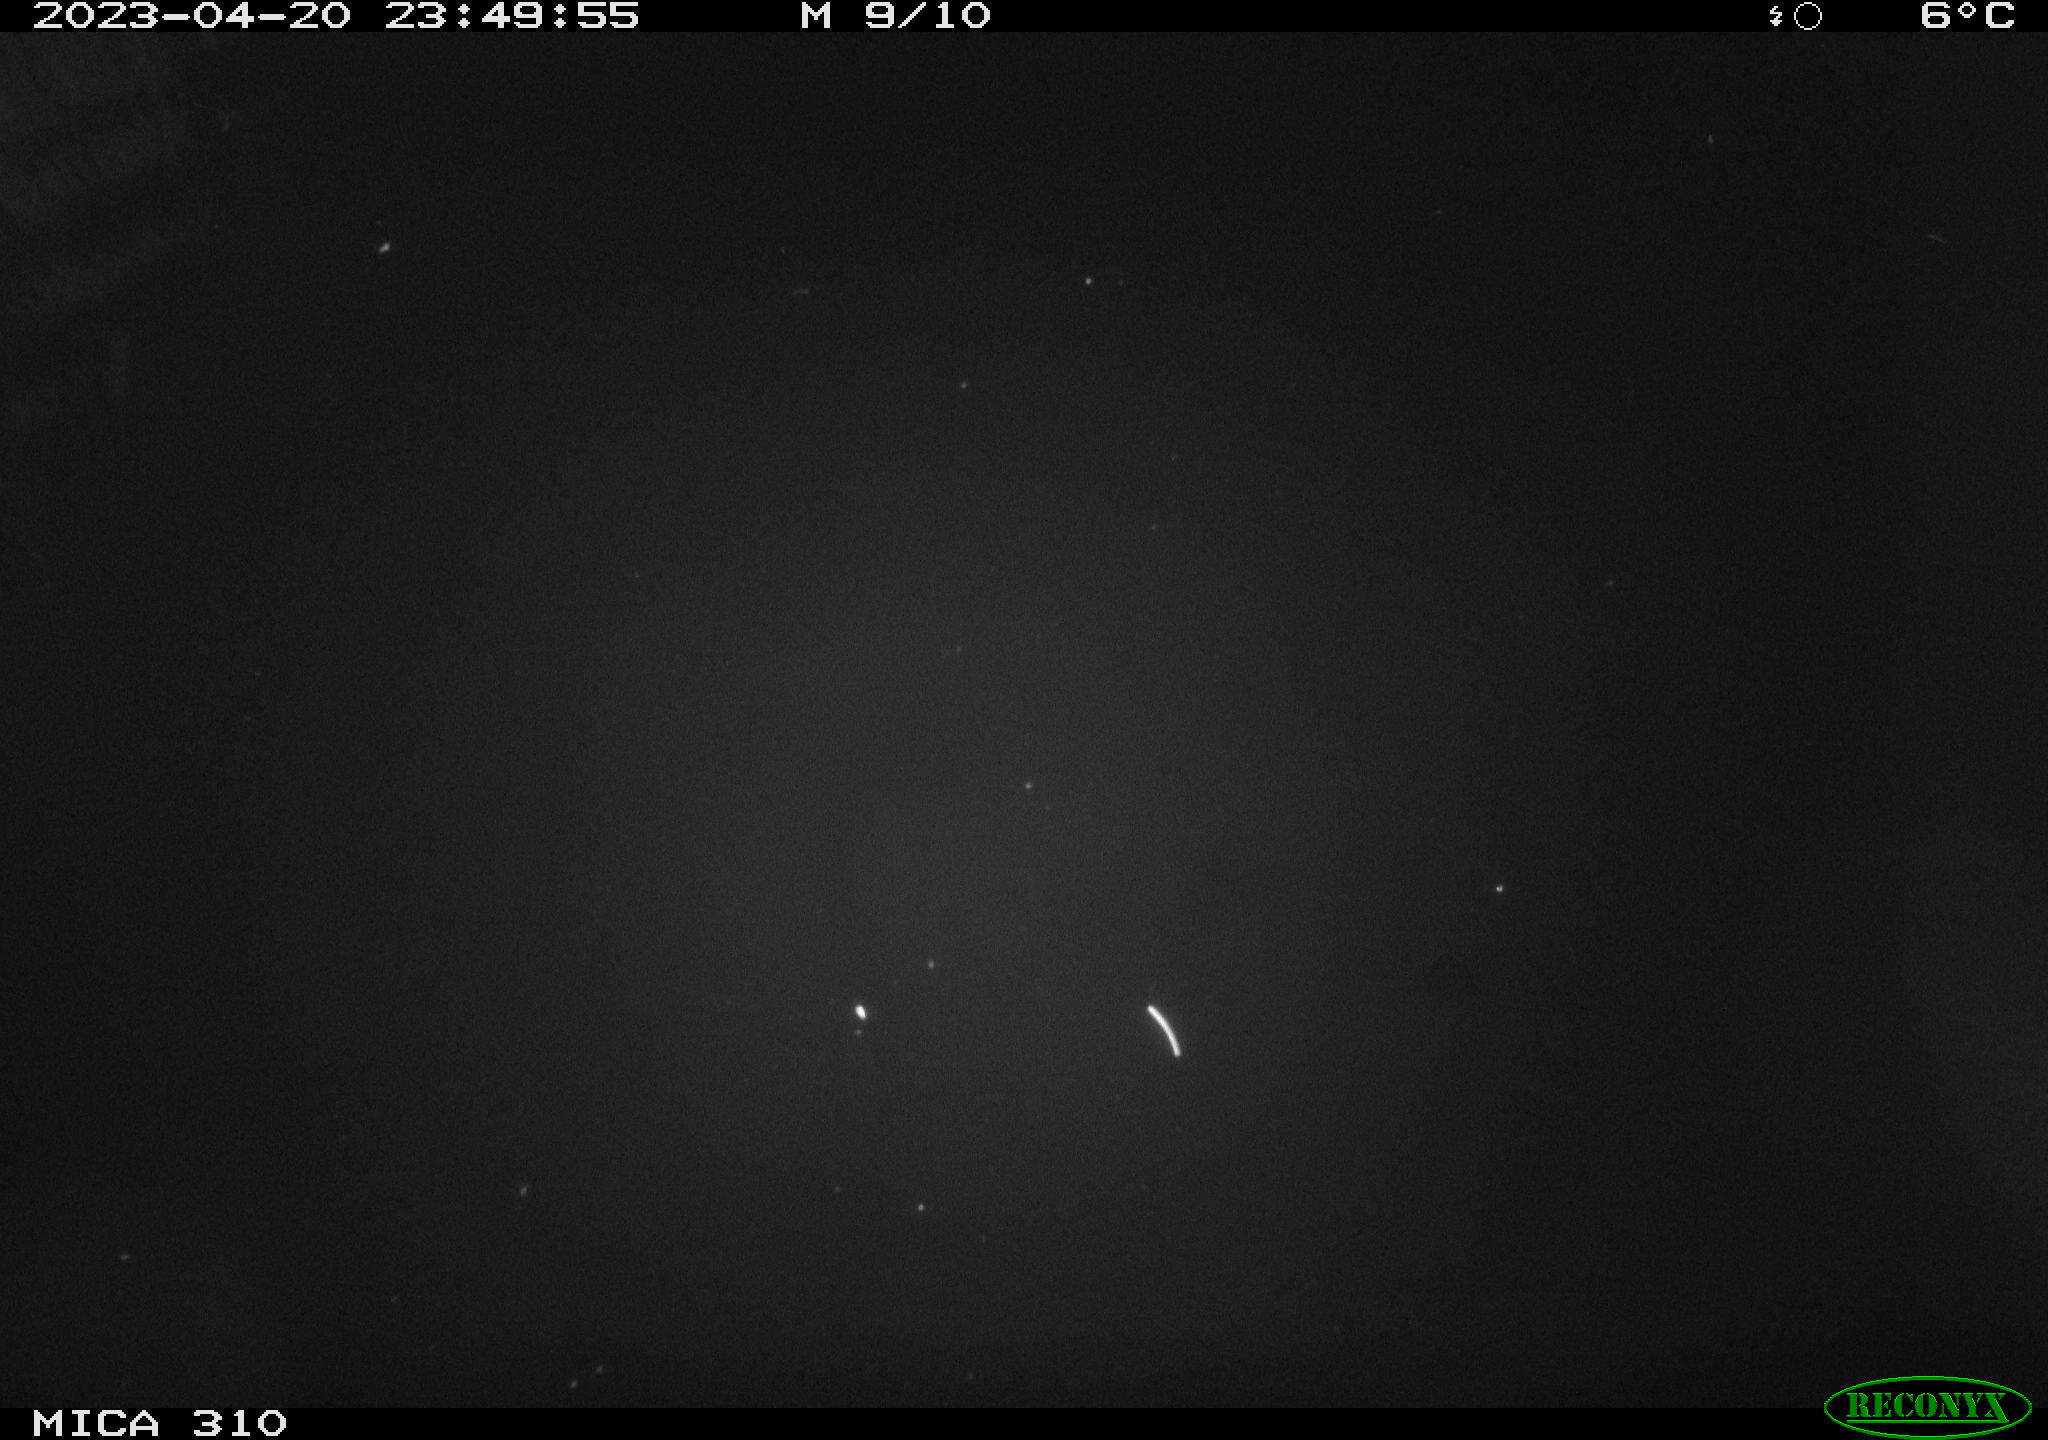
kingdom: Animalia
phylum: Chordata
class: Mammalia
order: Rodentia
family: Cricetidae
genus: Ondatra
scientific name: Ondatra zibethicus
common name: Muskrat
